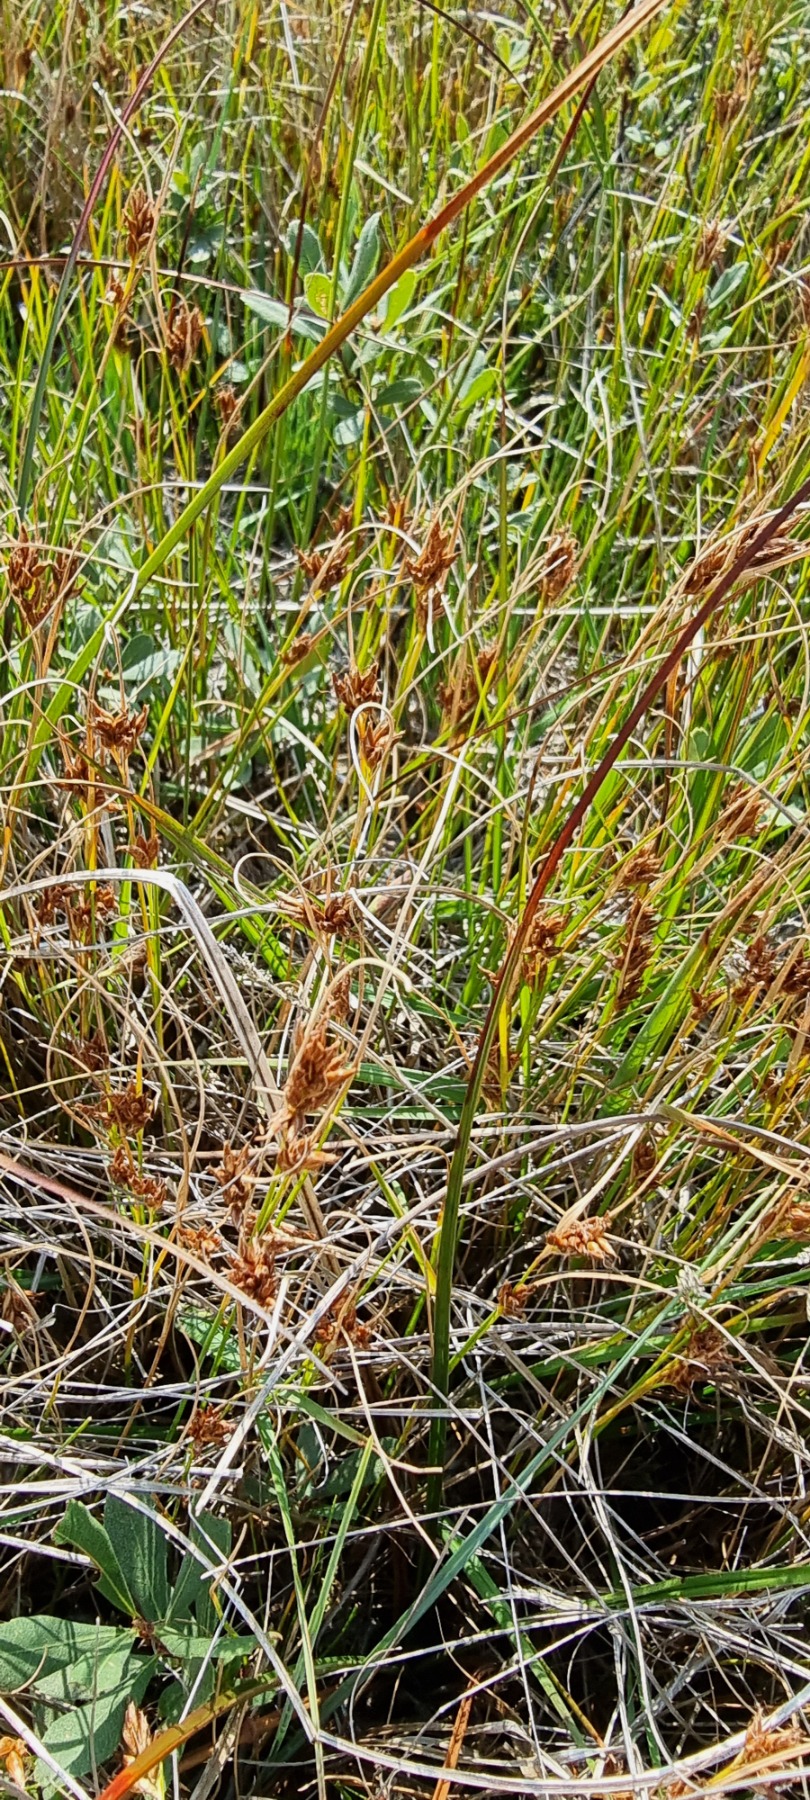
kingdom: Plantae
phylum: Tracheophyta
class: Liliopsida
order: Poales
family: Cyperaceae
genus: Rhynchospora
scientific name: Rhynchospora fusca
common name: Brun næbfrø
